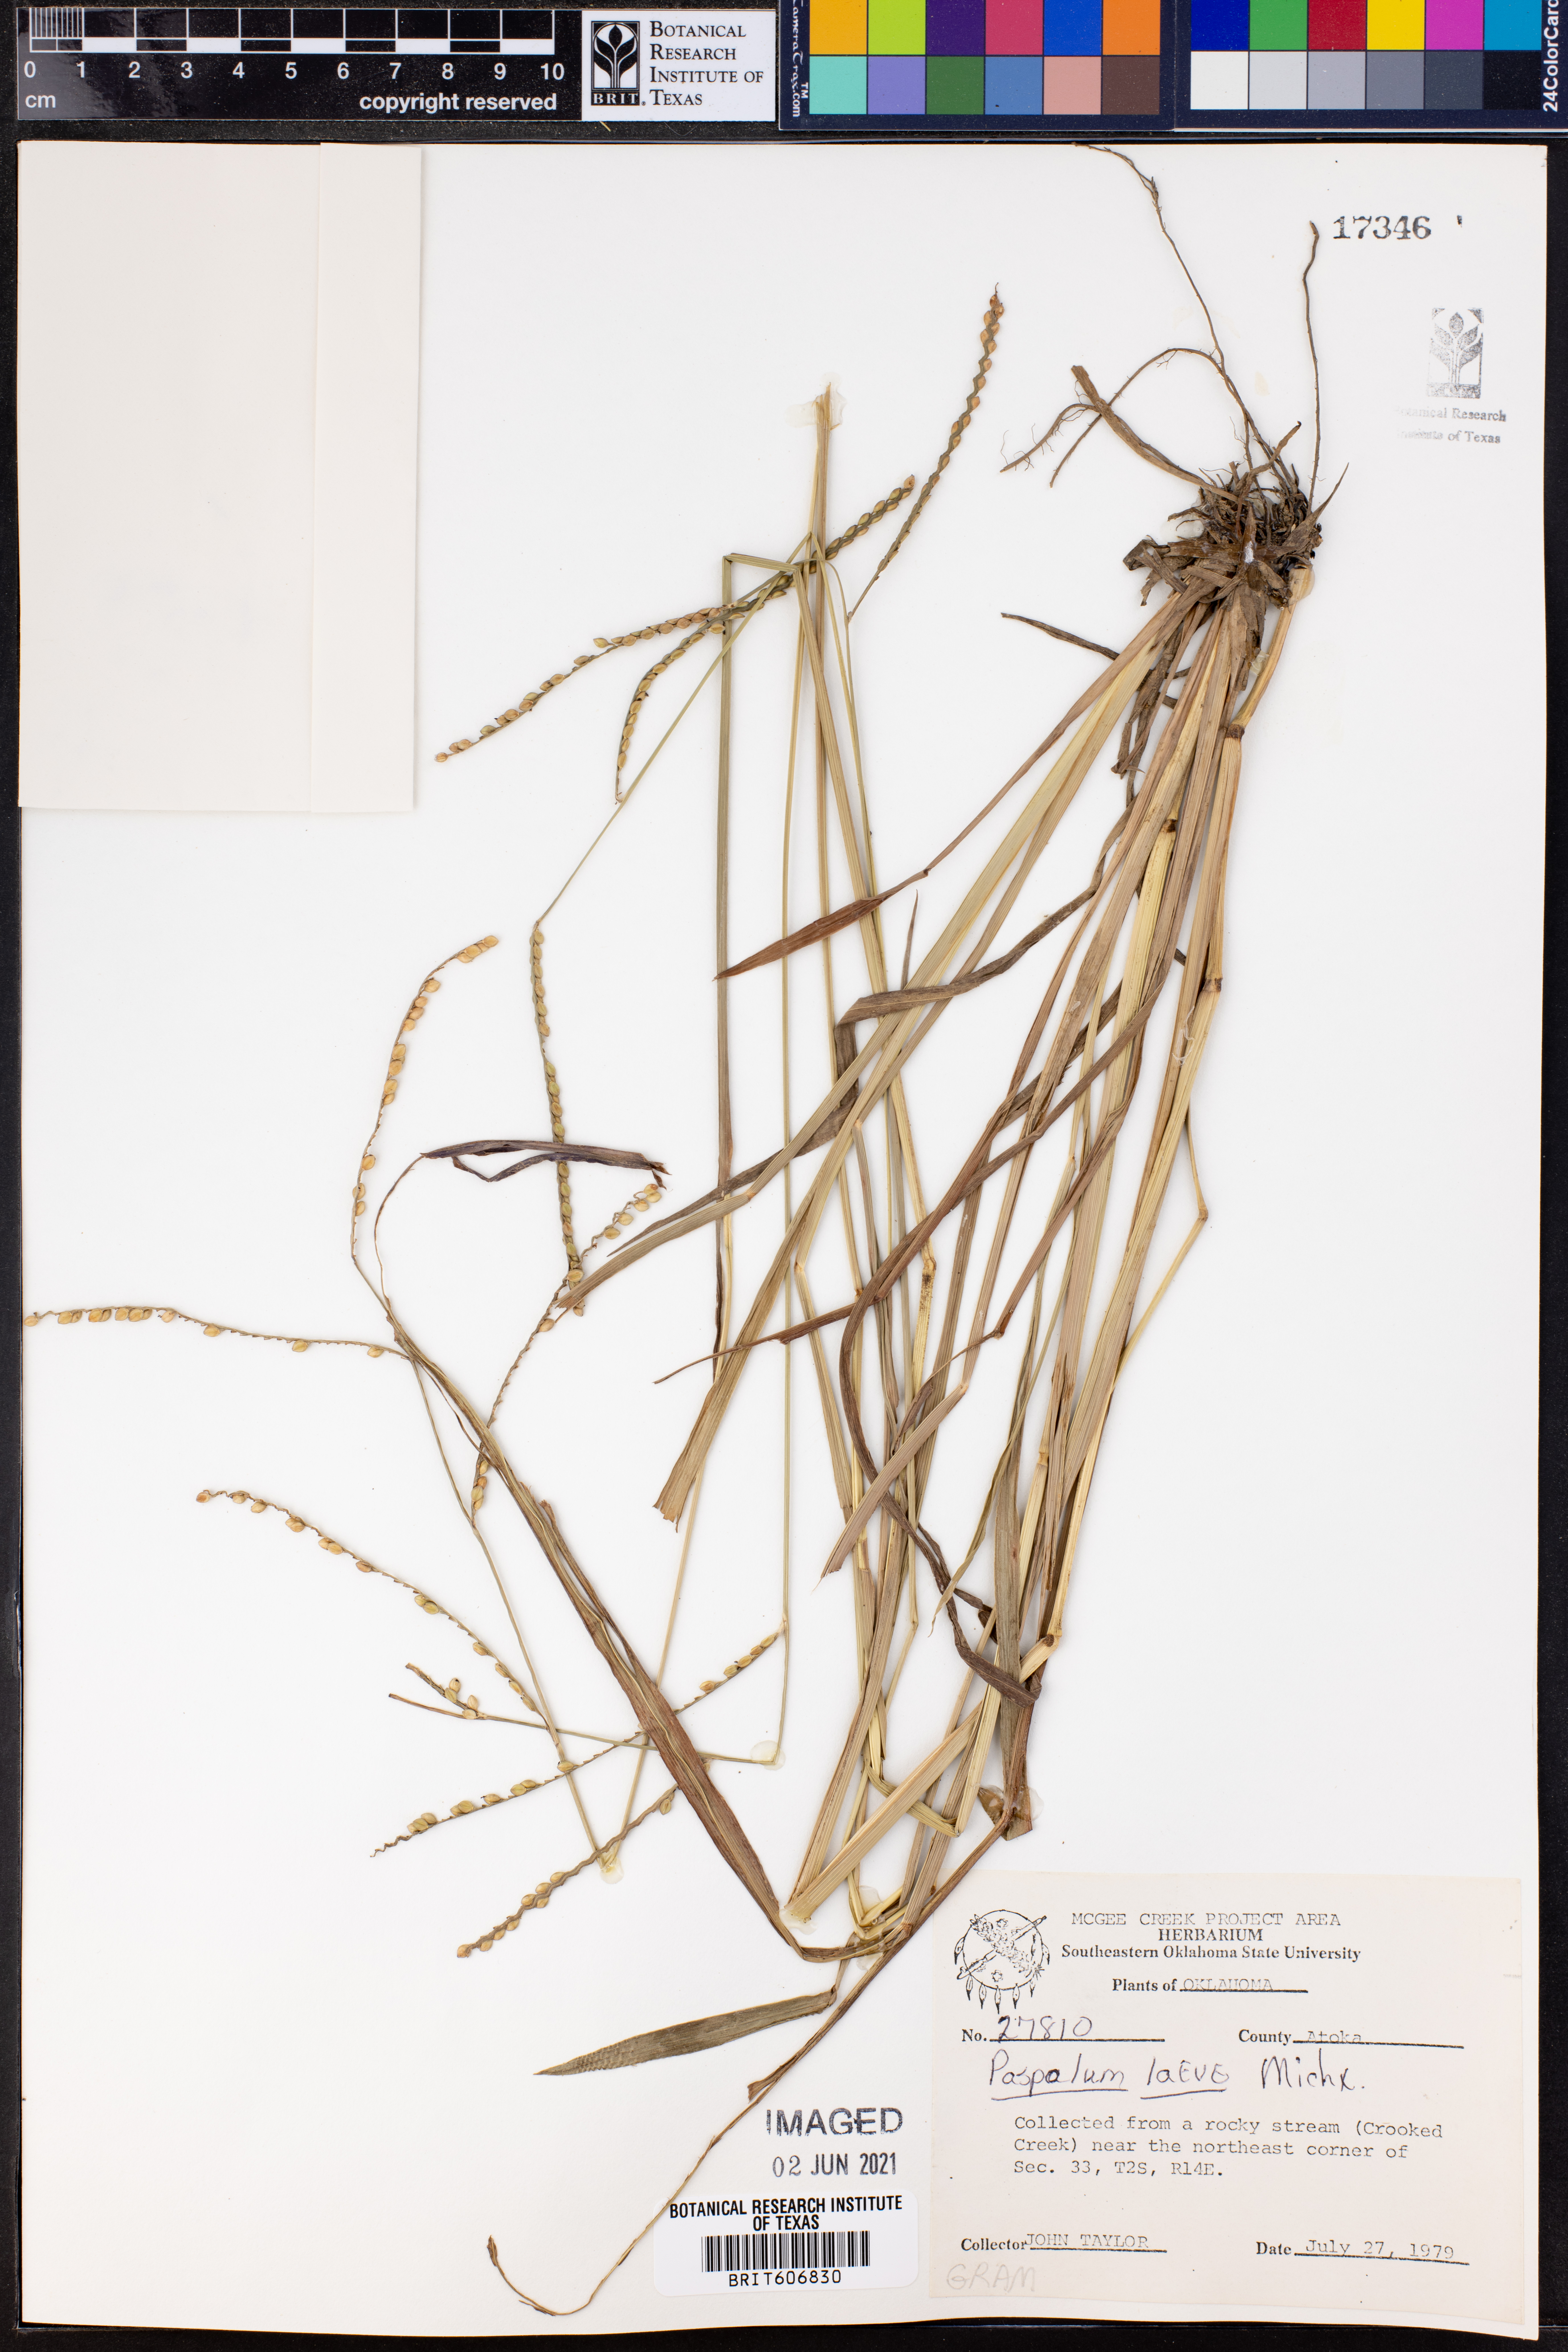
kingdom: Plantae
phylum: Tracheophyta
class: Liliopsida
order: Poales
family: Poaceae
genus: Paspalum
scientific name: Paspalum laeve
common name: Field paspalum
